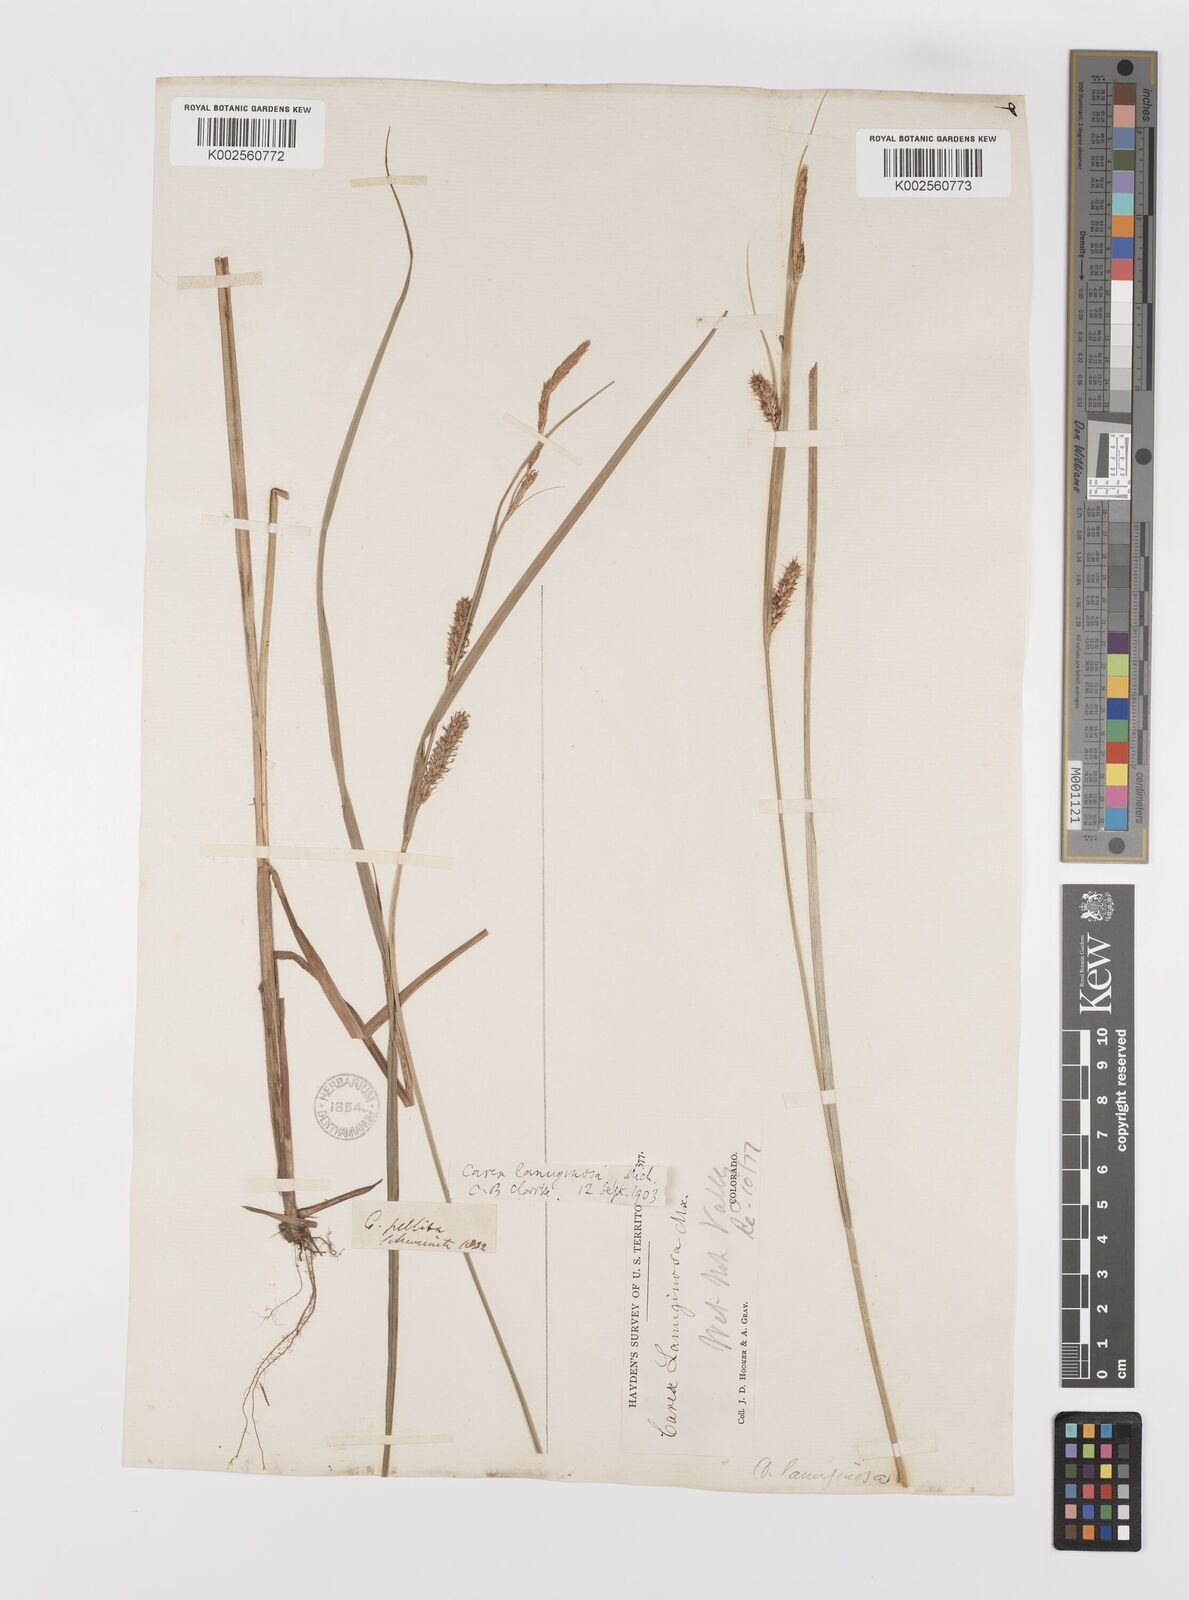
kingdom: Plantae
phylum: Tracheophyta
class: Liliopsida
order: Poales
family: Cyperaceae
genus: Carex
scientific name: Carex lasiocarpa
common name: Slender sedge
